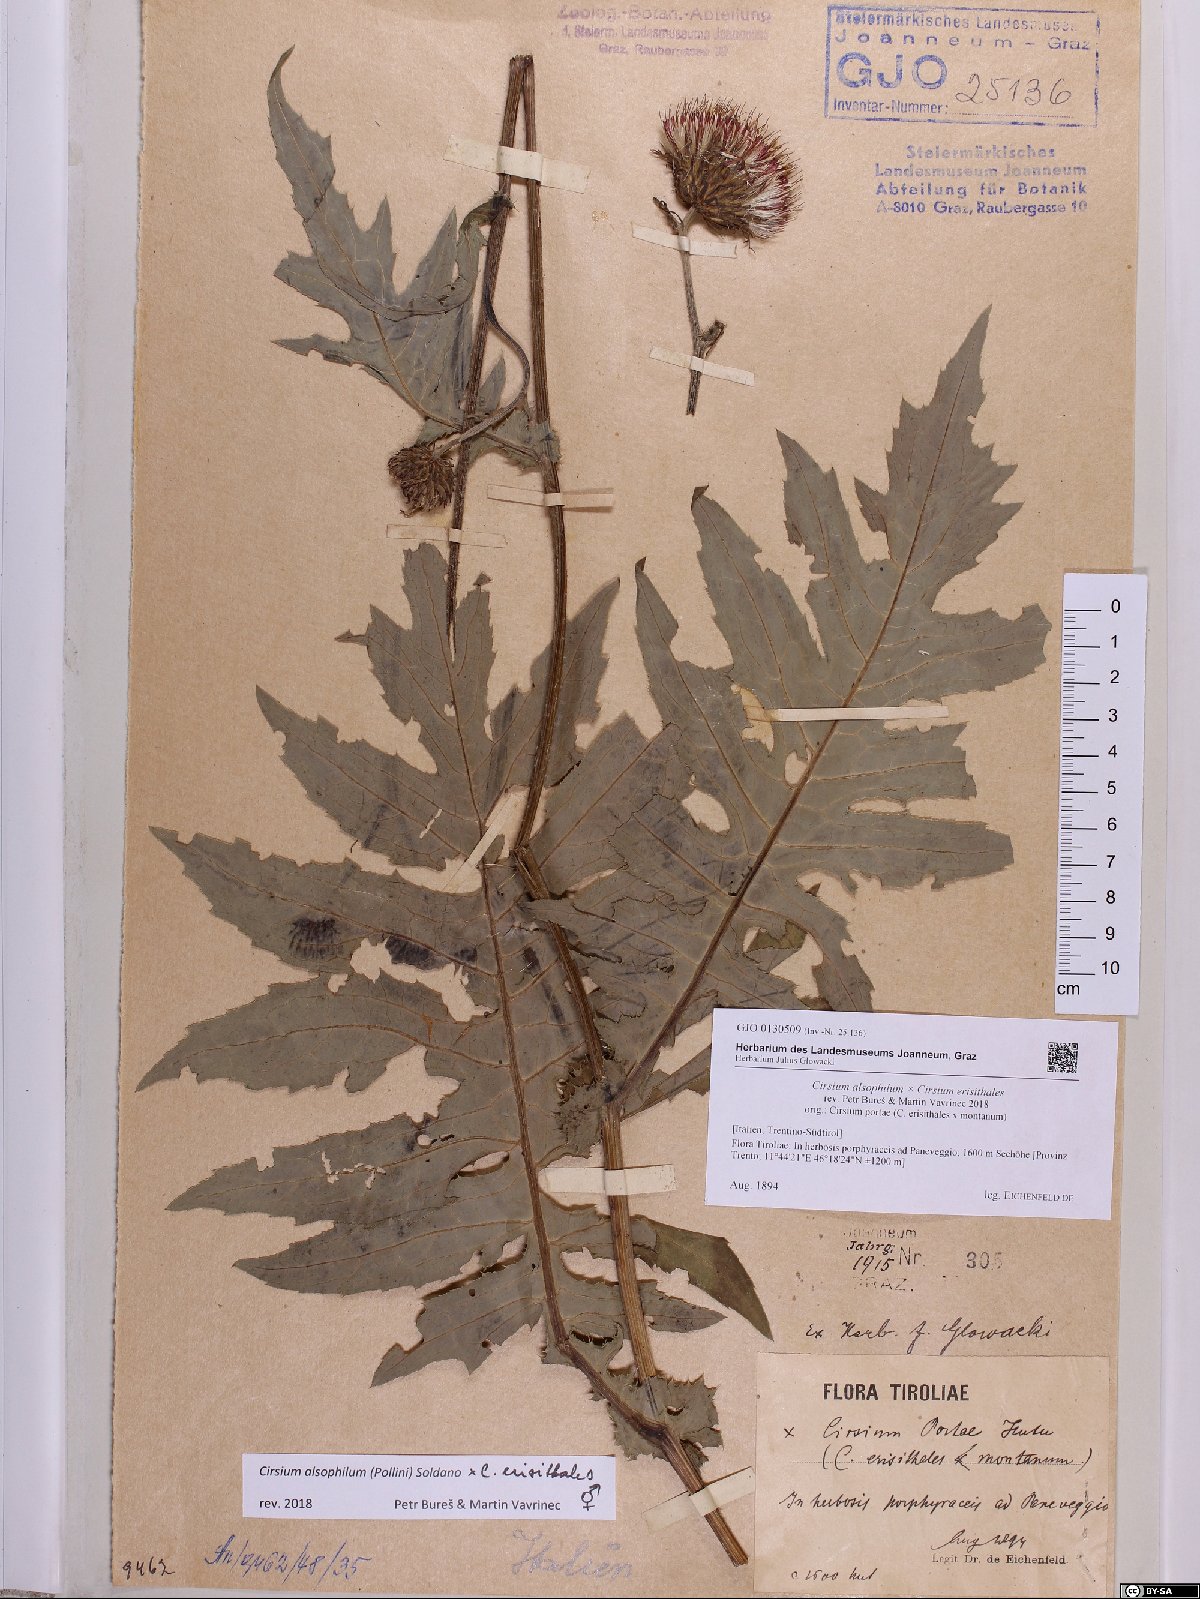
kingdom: Plantae
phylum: Tracheophyta
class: Magnoliopsida
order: Asterales
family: Asteraceae
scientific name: Asteraceae
